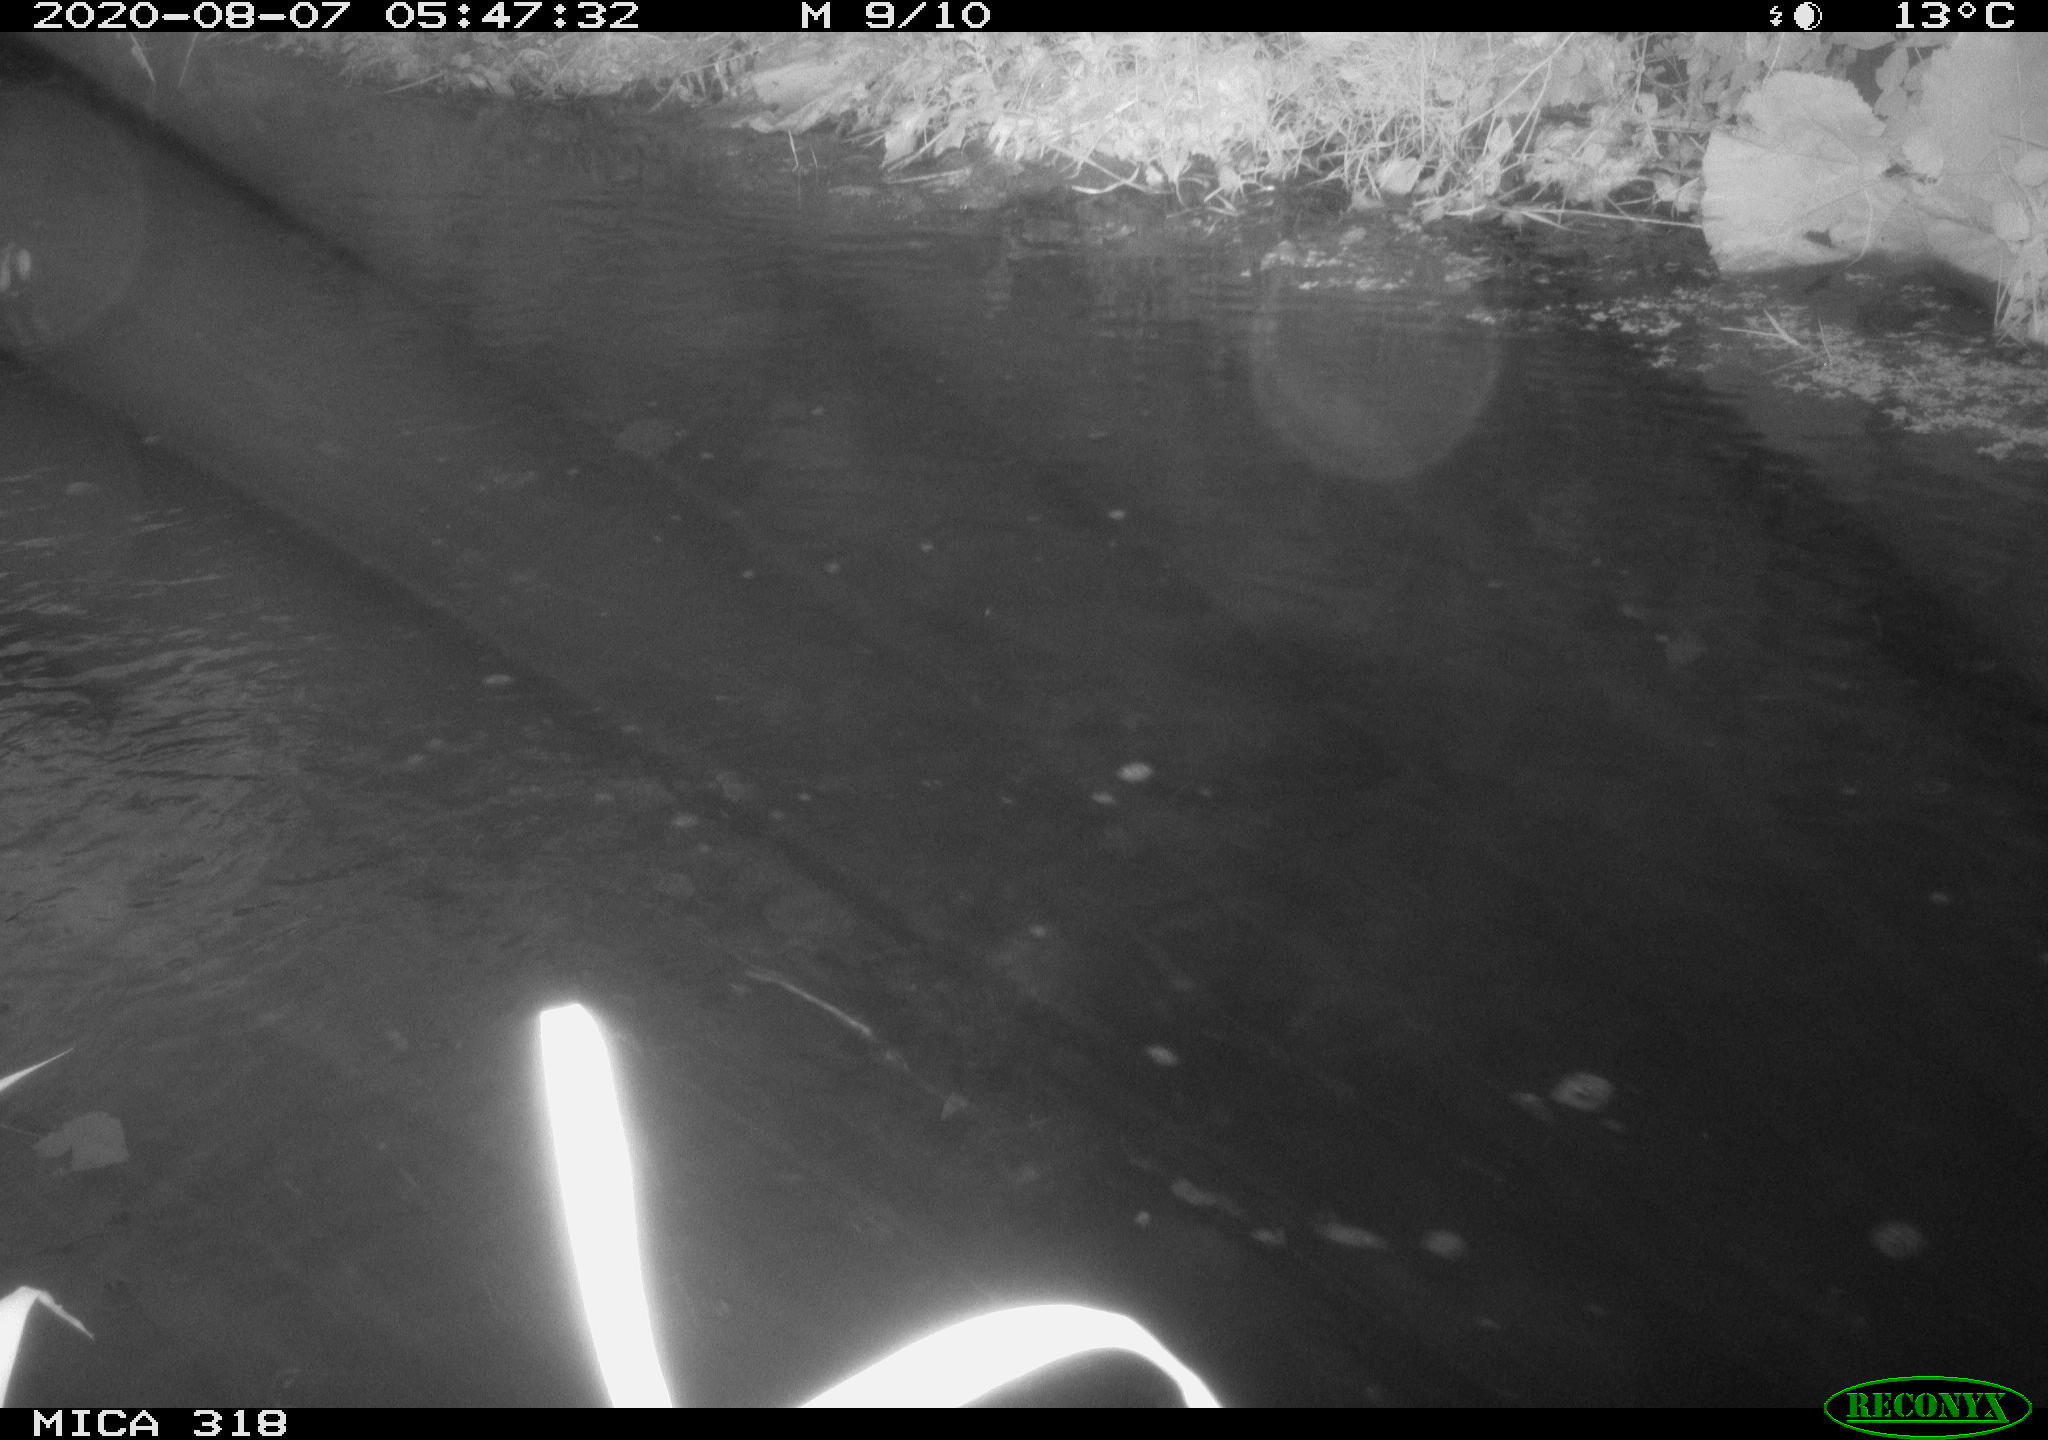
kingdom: Animalia
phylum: Chordata
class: Aves
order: Gruiformes
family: Rallidae
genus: Gallinula
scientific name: Gallinula chloropus
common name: Common moorhen
